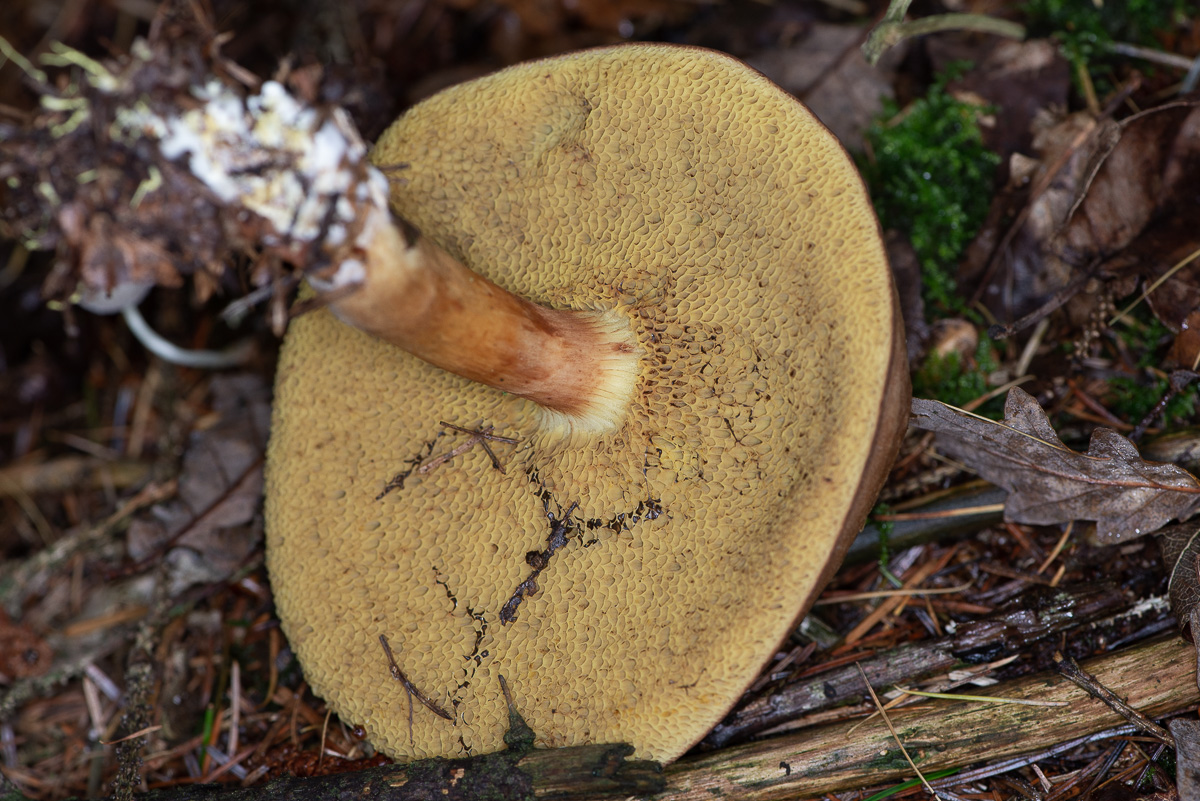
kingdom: Fungi
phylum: Basidiomycota
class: Agaricomycetes
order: Boletales
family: Boletaceae
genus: Xerocomellus
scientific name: Xerocomellus pruinatus
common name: dugget rørhat
